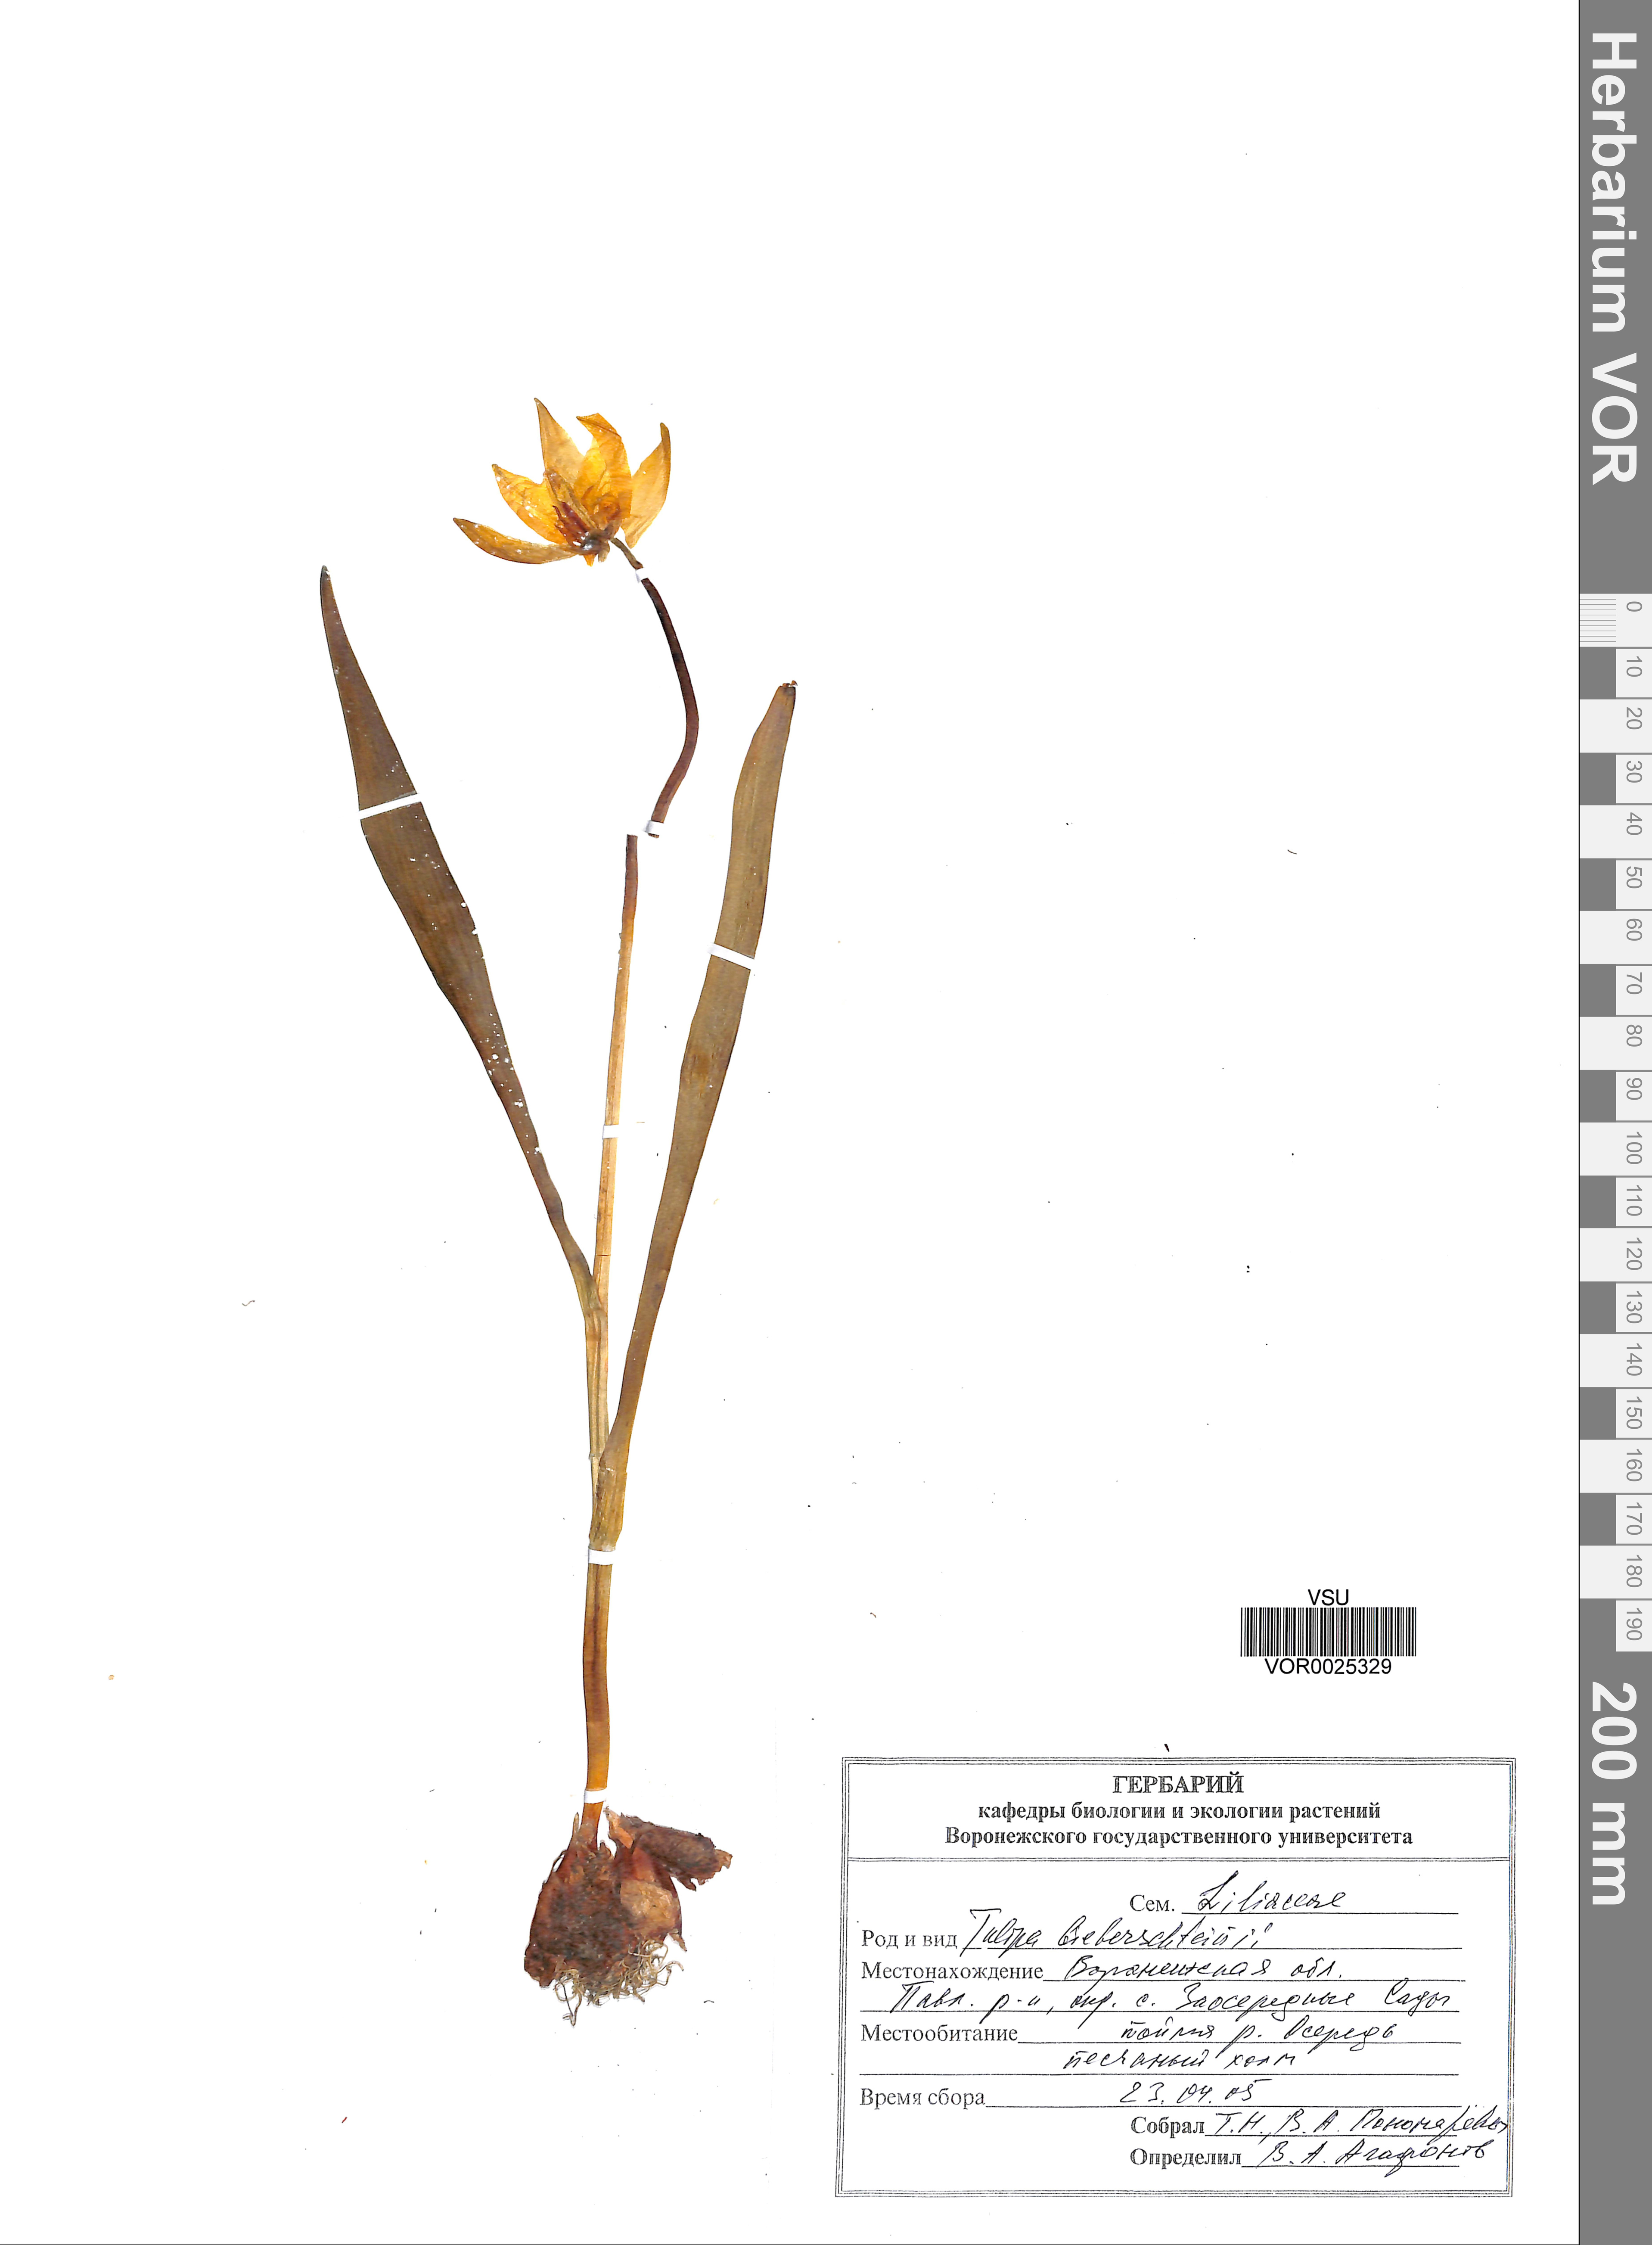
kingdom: Plantae
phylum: Tracheophyta
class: Liliopsida
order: Liliales
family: Liliaceae
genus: Tulipa
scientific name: Tulipa sylvestris
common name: Wild tulip
